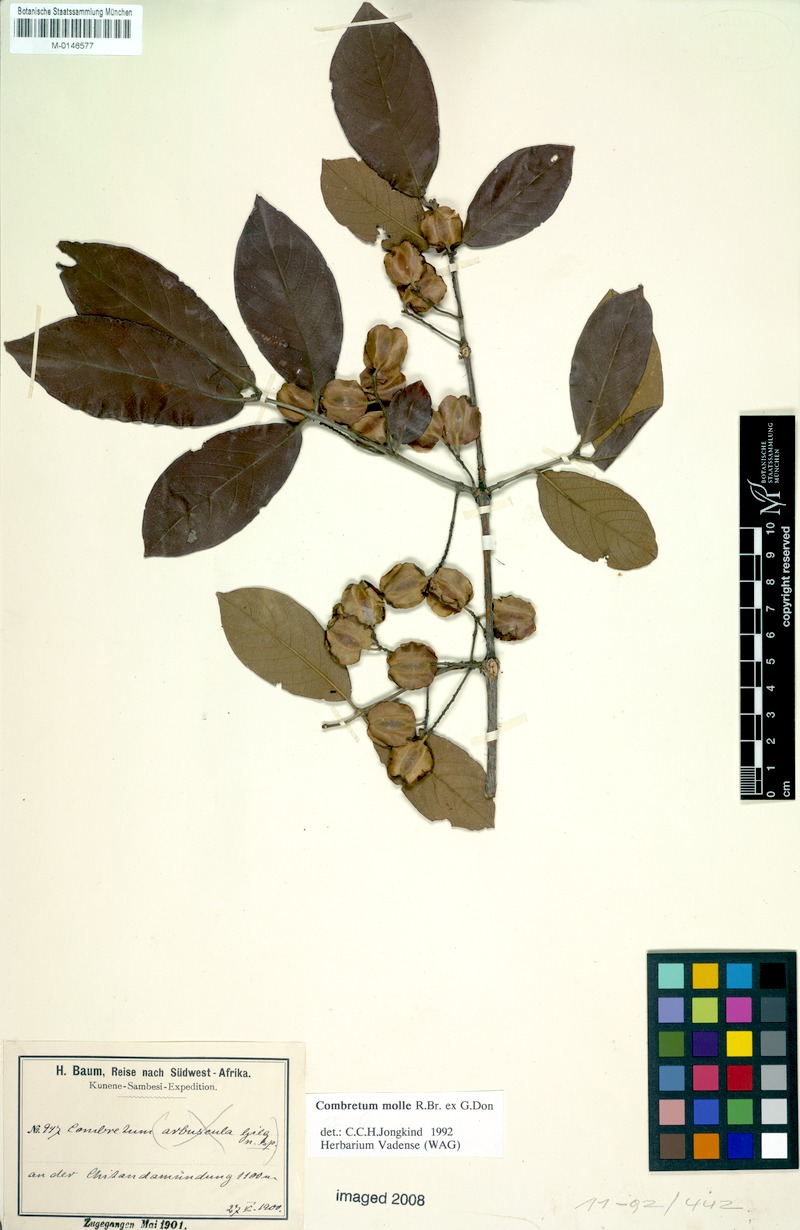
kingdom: Plantae
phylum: Tracheophyta
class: Magnoliopsida
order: Myrtales
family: Combretaceae
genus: Combretum
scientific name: Combretum molle
